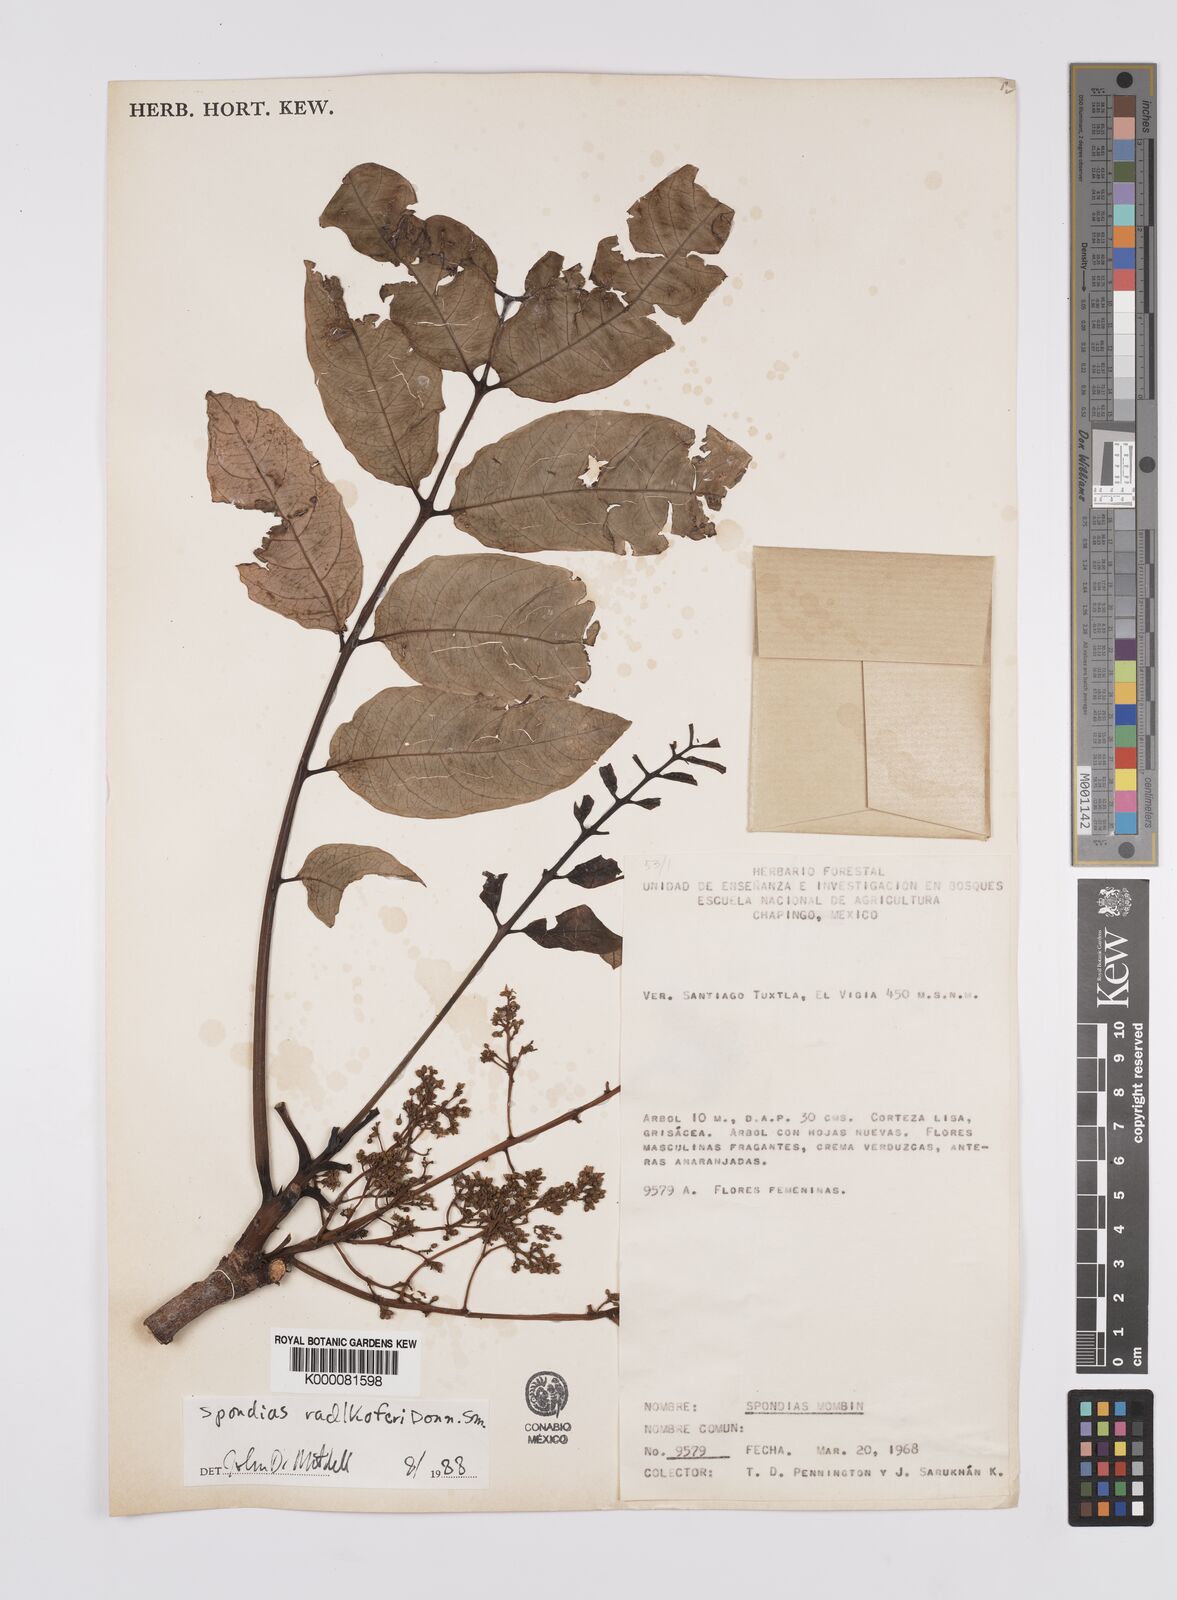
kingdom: Plantae
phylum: Tracheophyta
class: Magnoliopsida
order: Sapindales
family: Anacardiaceae
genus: Spondias
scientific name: Spondias radlkoferi
